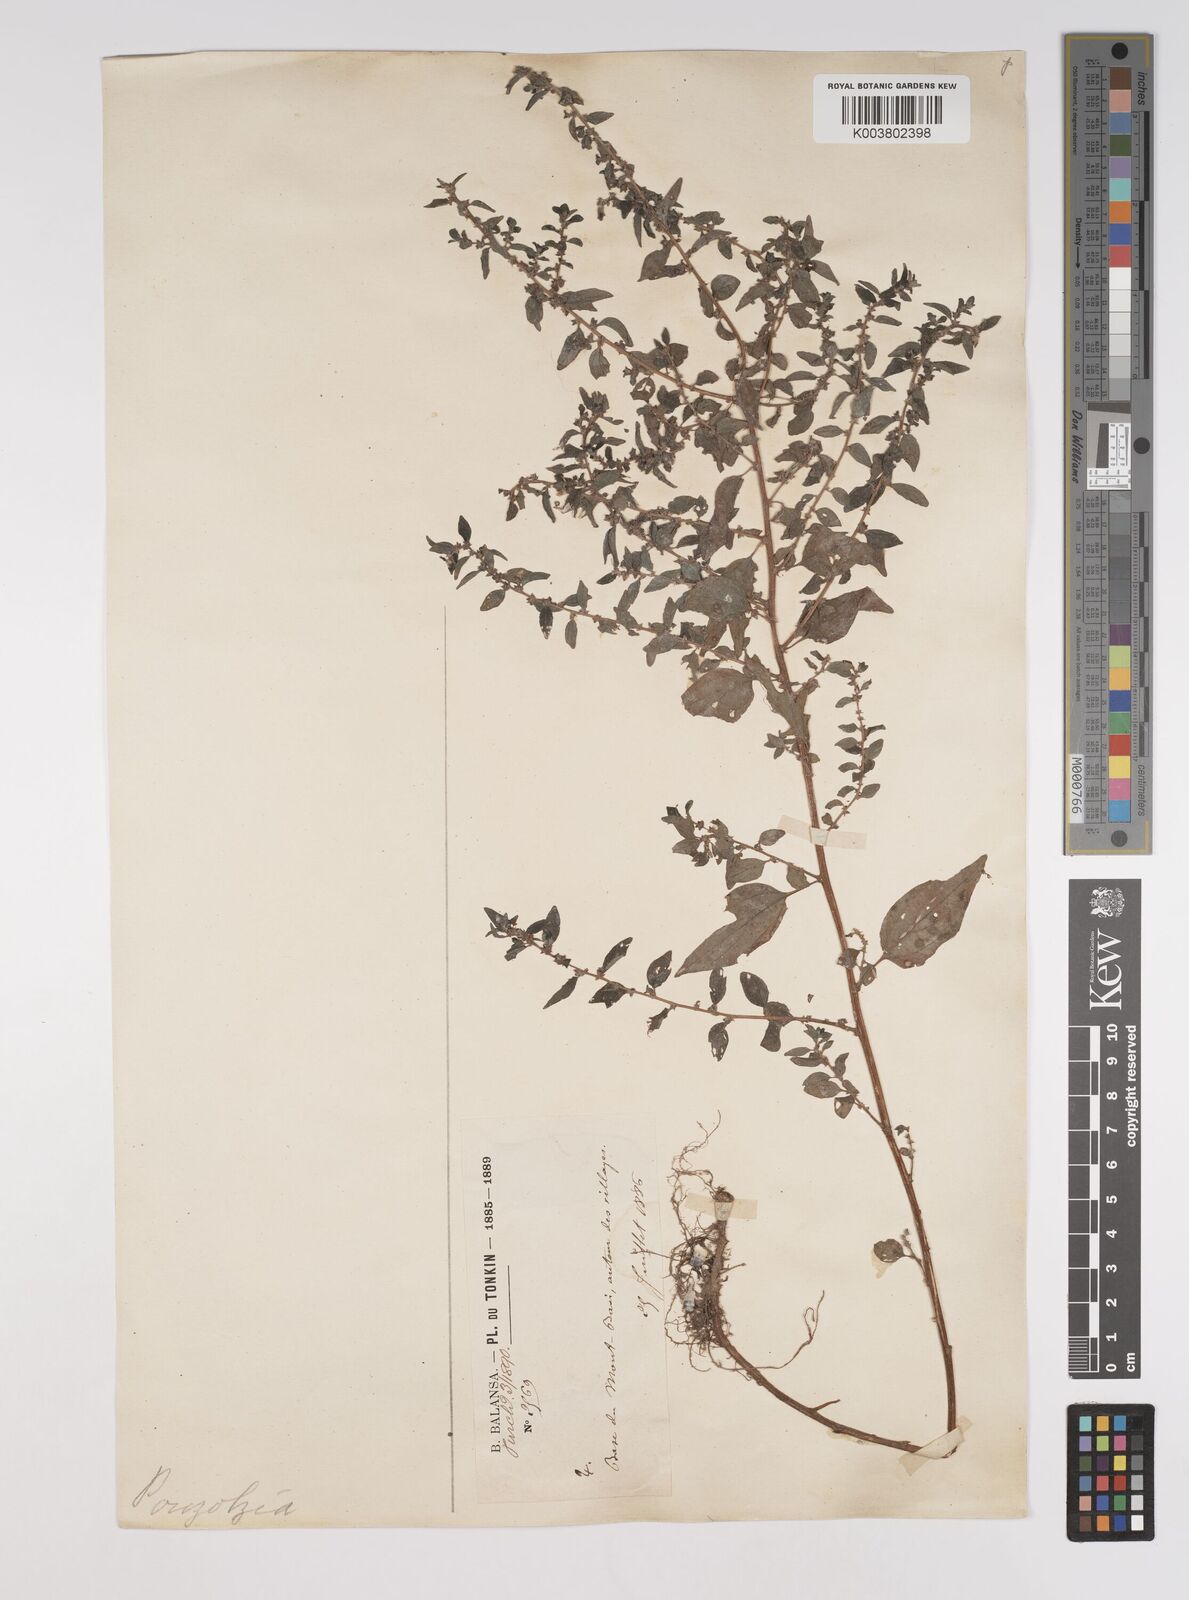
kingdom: Plantae
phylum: Tracheophyta
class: Magnoliopsida
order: Rosales
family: Urticaceae
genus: Pouzolzia
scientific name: Pouzolzia zeylanica
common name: Graceful pouzolzsbush
